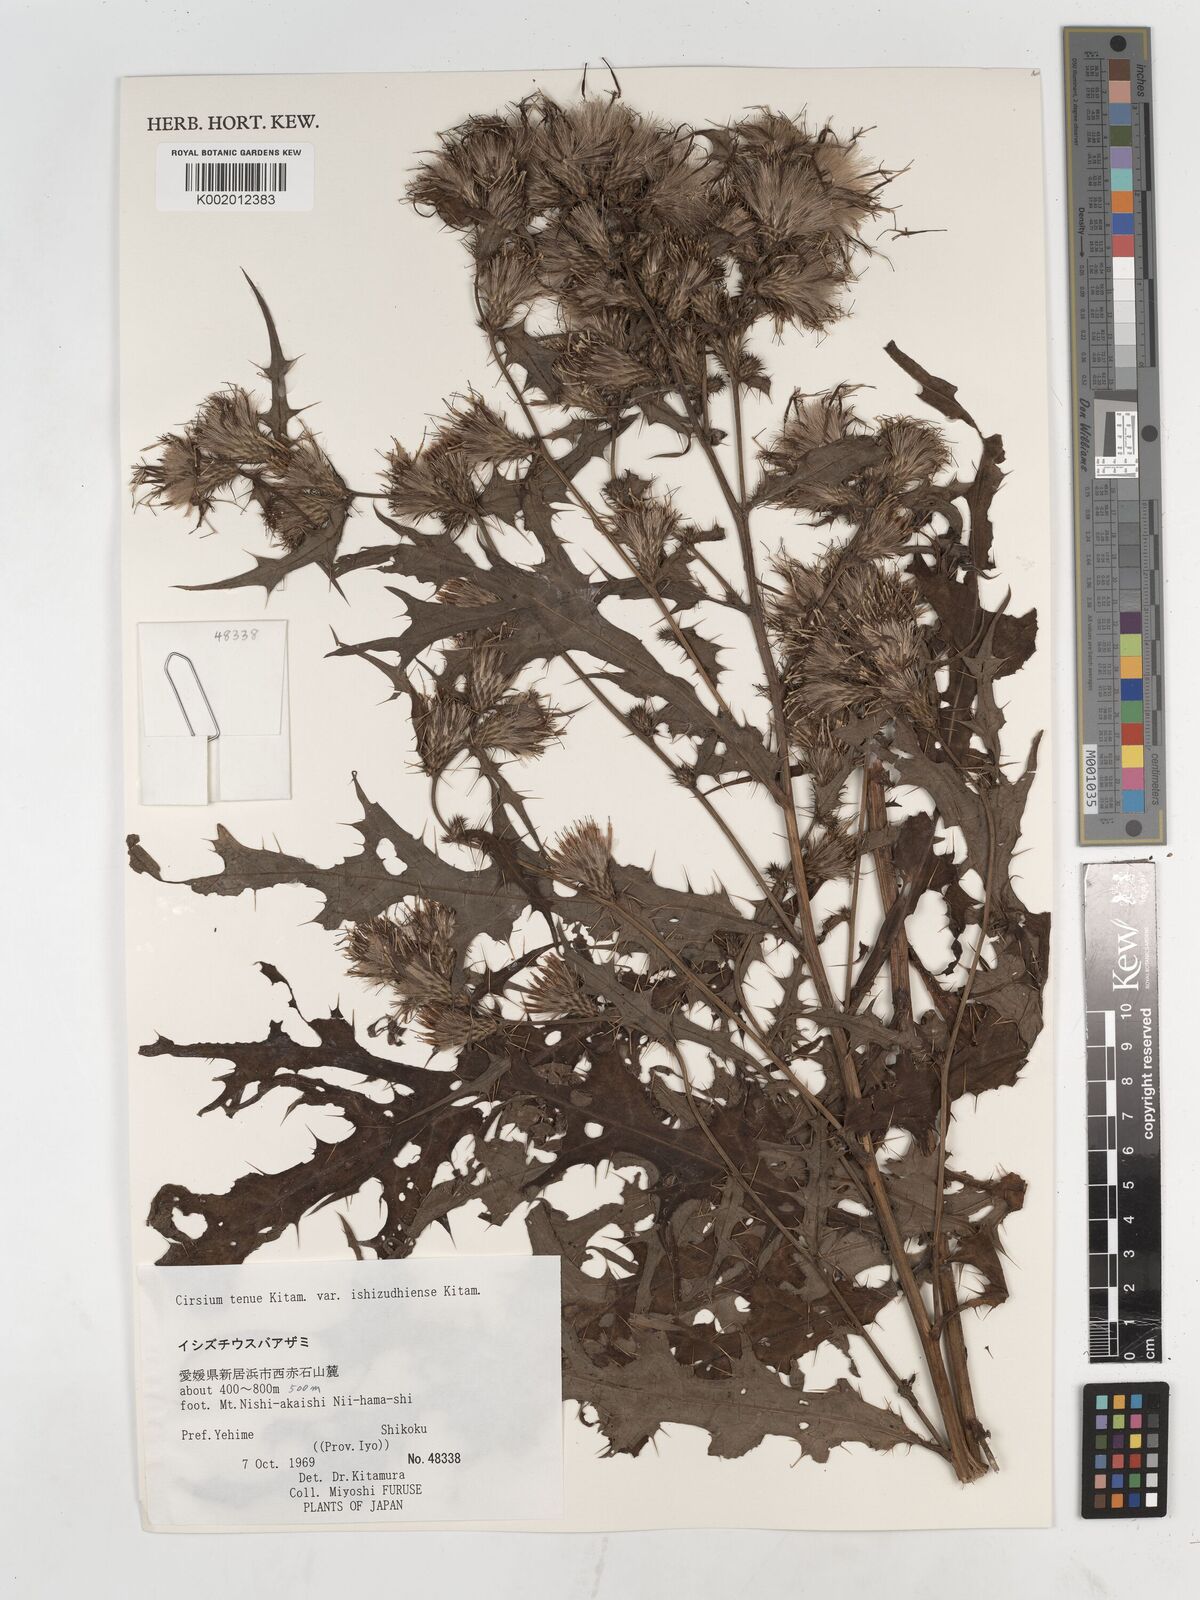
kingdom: Plantae
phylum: Tracheophyta
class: Magnoliopsida
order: Asterales
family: Asteraceae
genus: Cirsium
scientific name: Cirsium ishizuchiense
